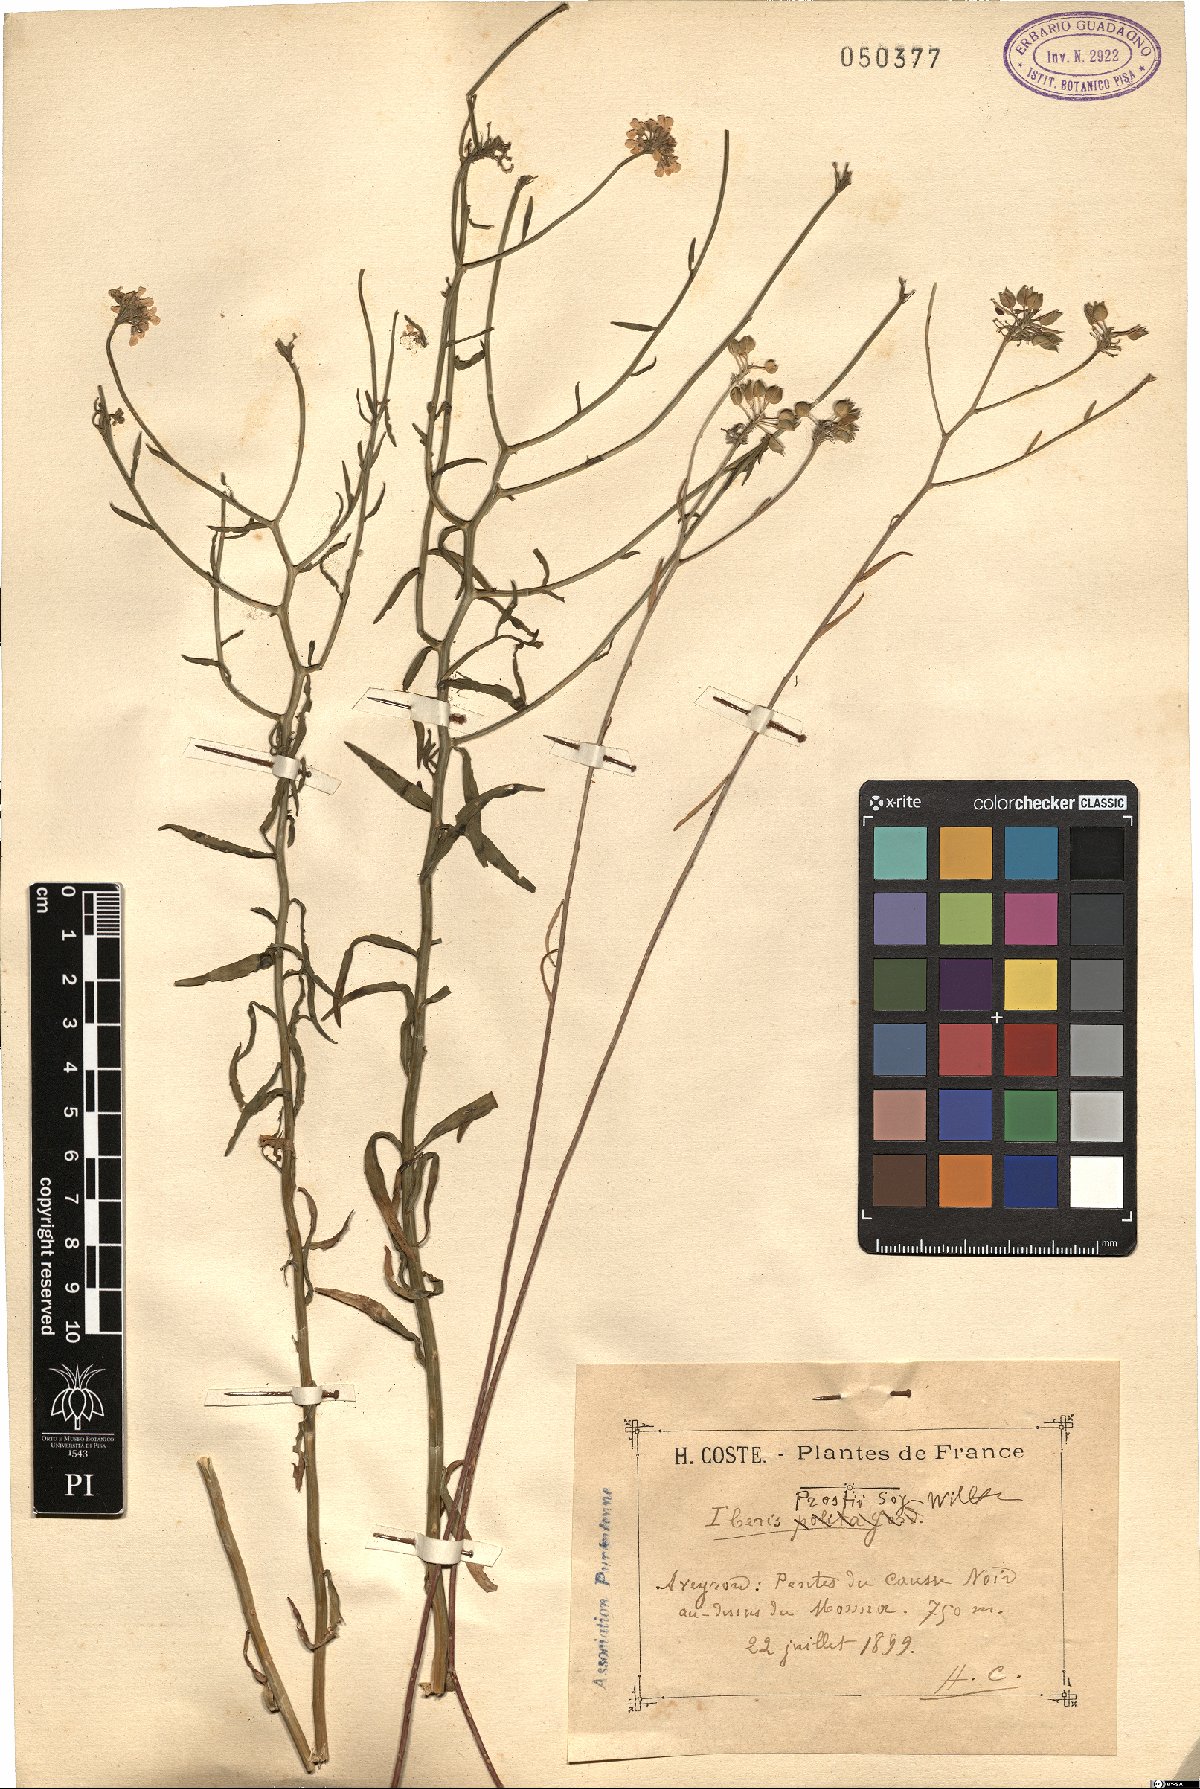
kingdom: Plantae
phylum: Tracheophyta
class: Magnoliopsida
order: Brassicales
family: Brassicaceae
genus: Iberis
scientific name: Iberis linifolia
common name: Candytuft
